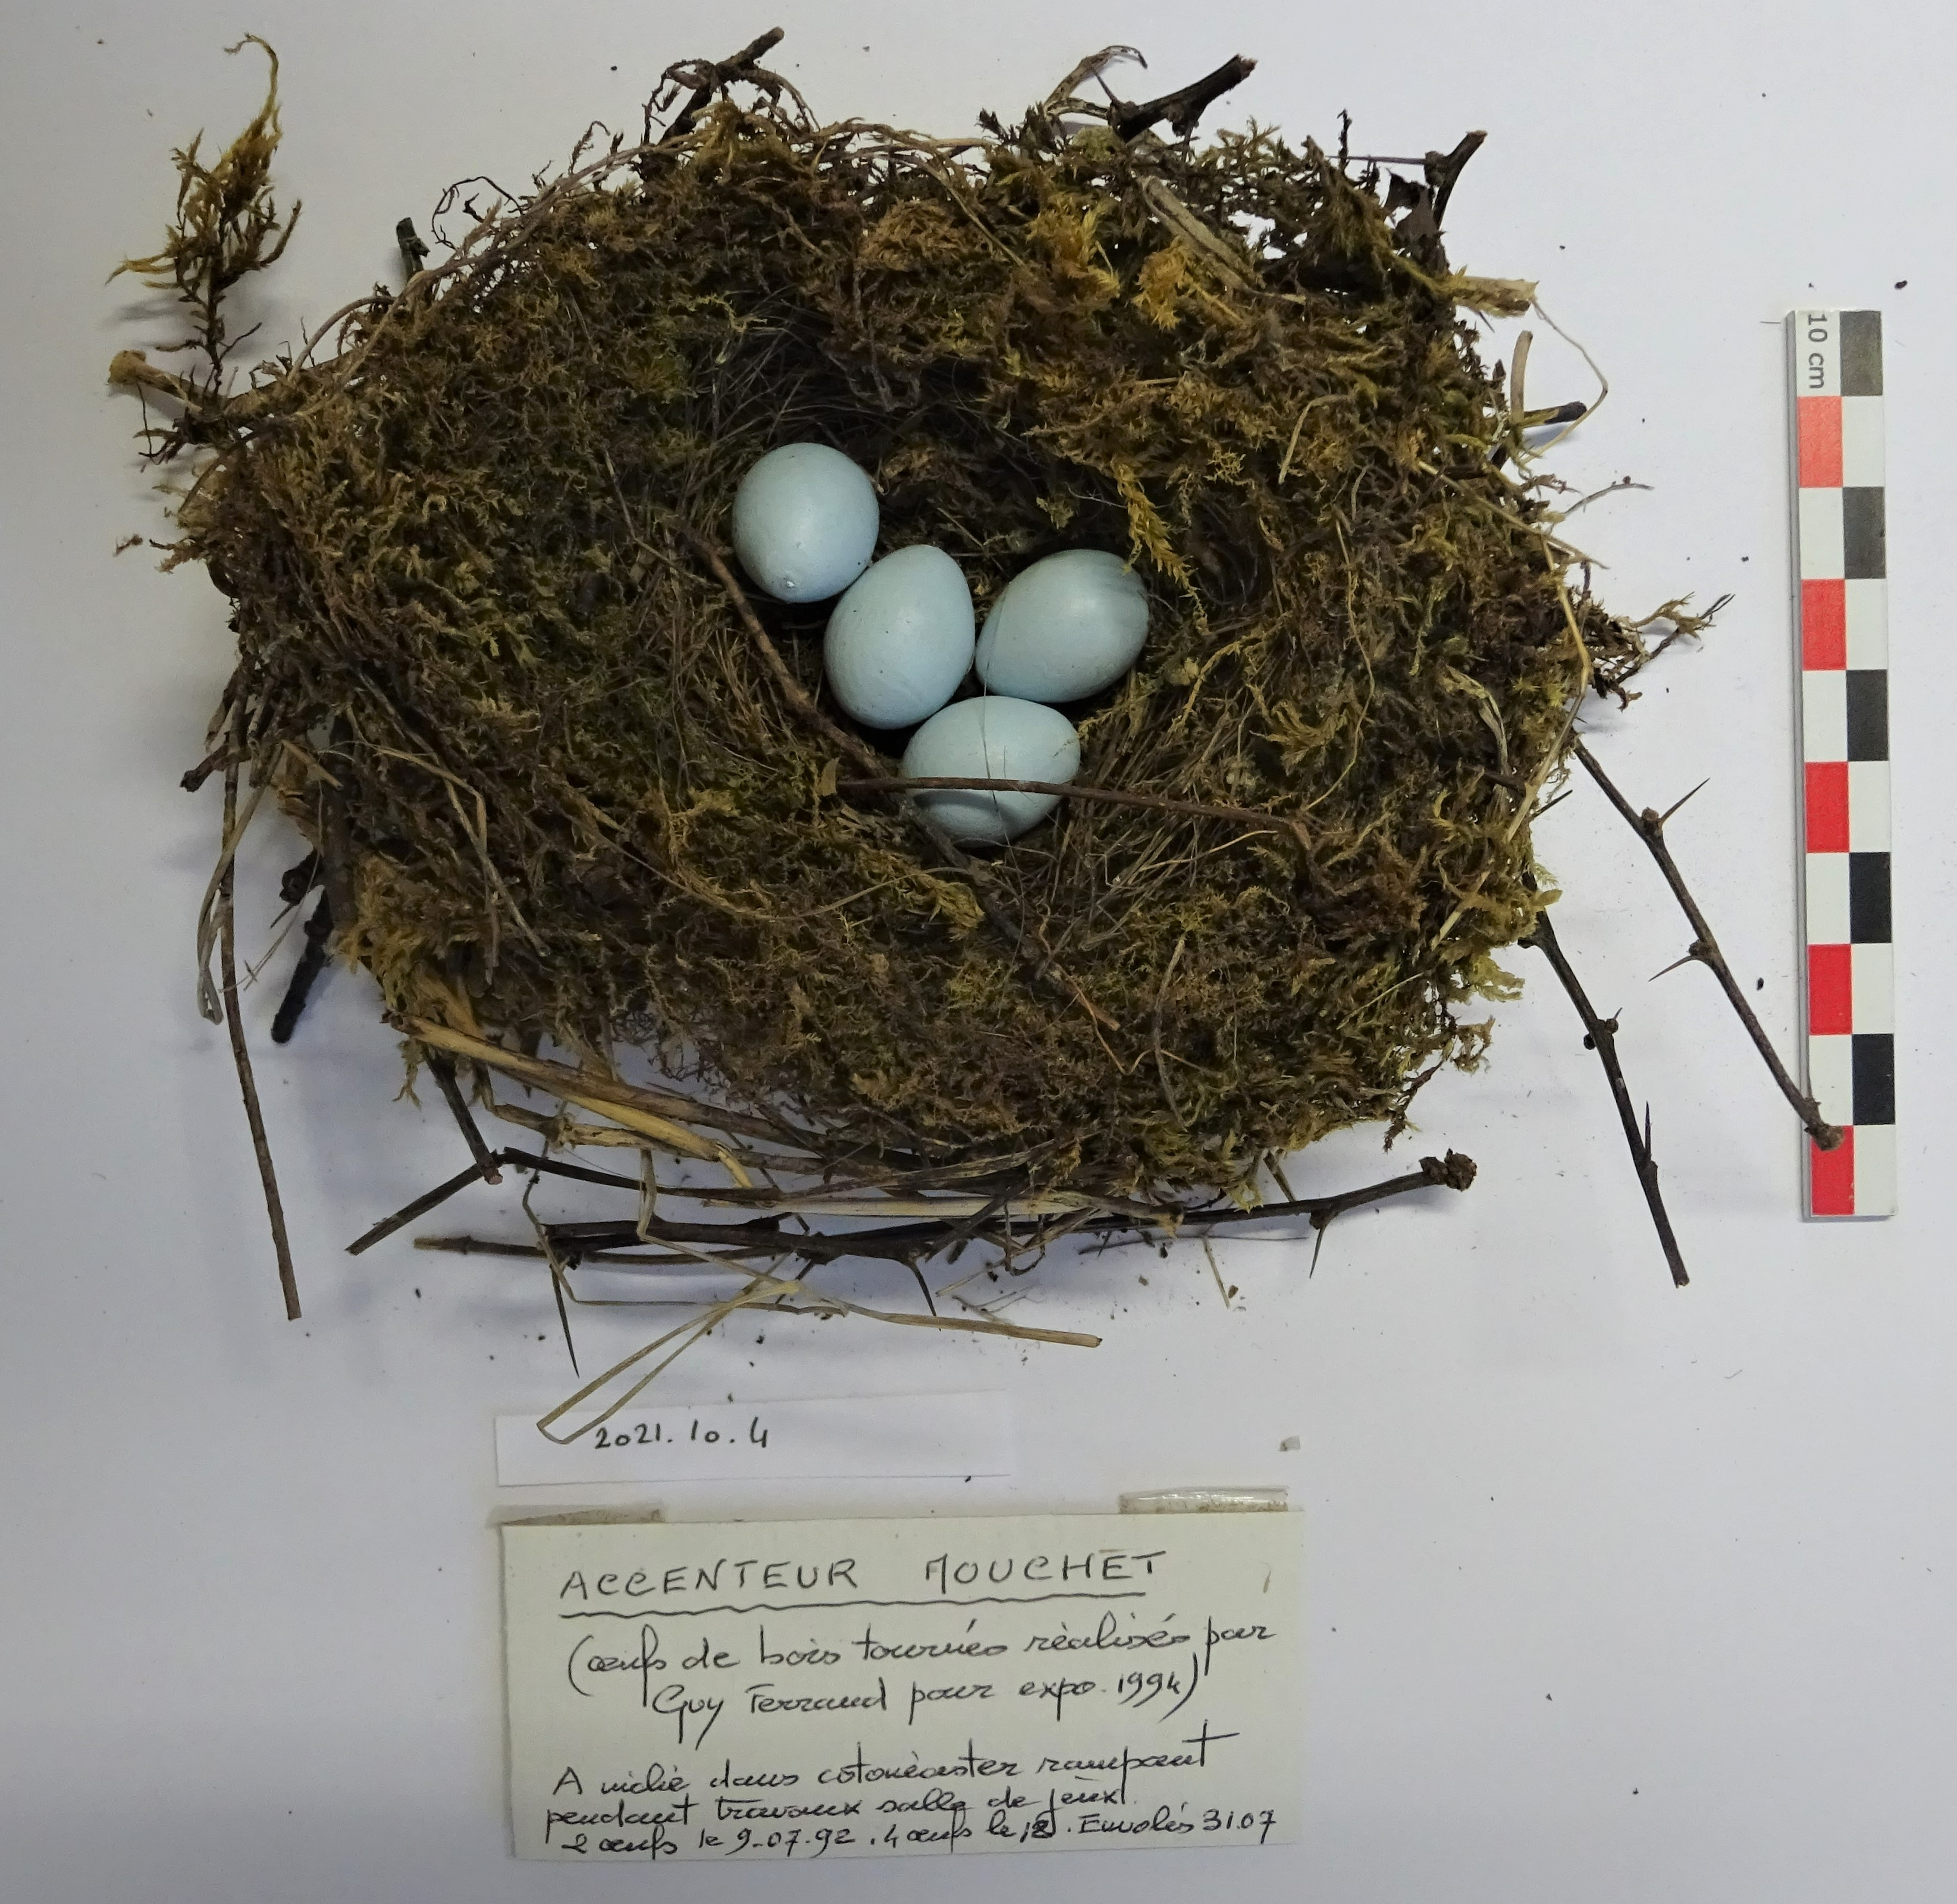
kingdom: Animalia
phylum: Chordata
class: Aves
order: Passeriformes
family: Prunellidae
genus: Prunella
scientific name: Prunella modularis
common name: Dunnock
